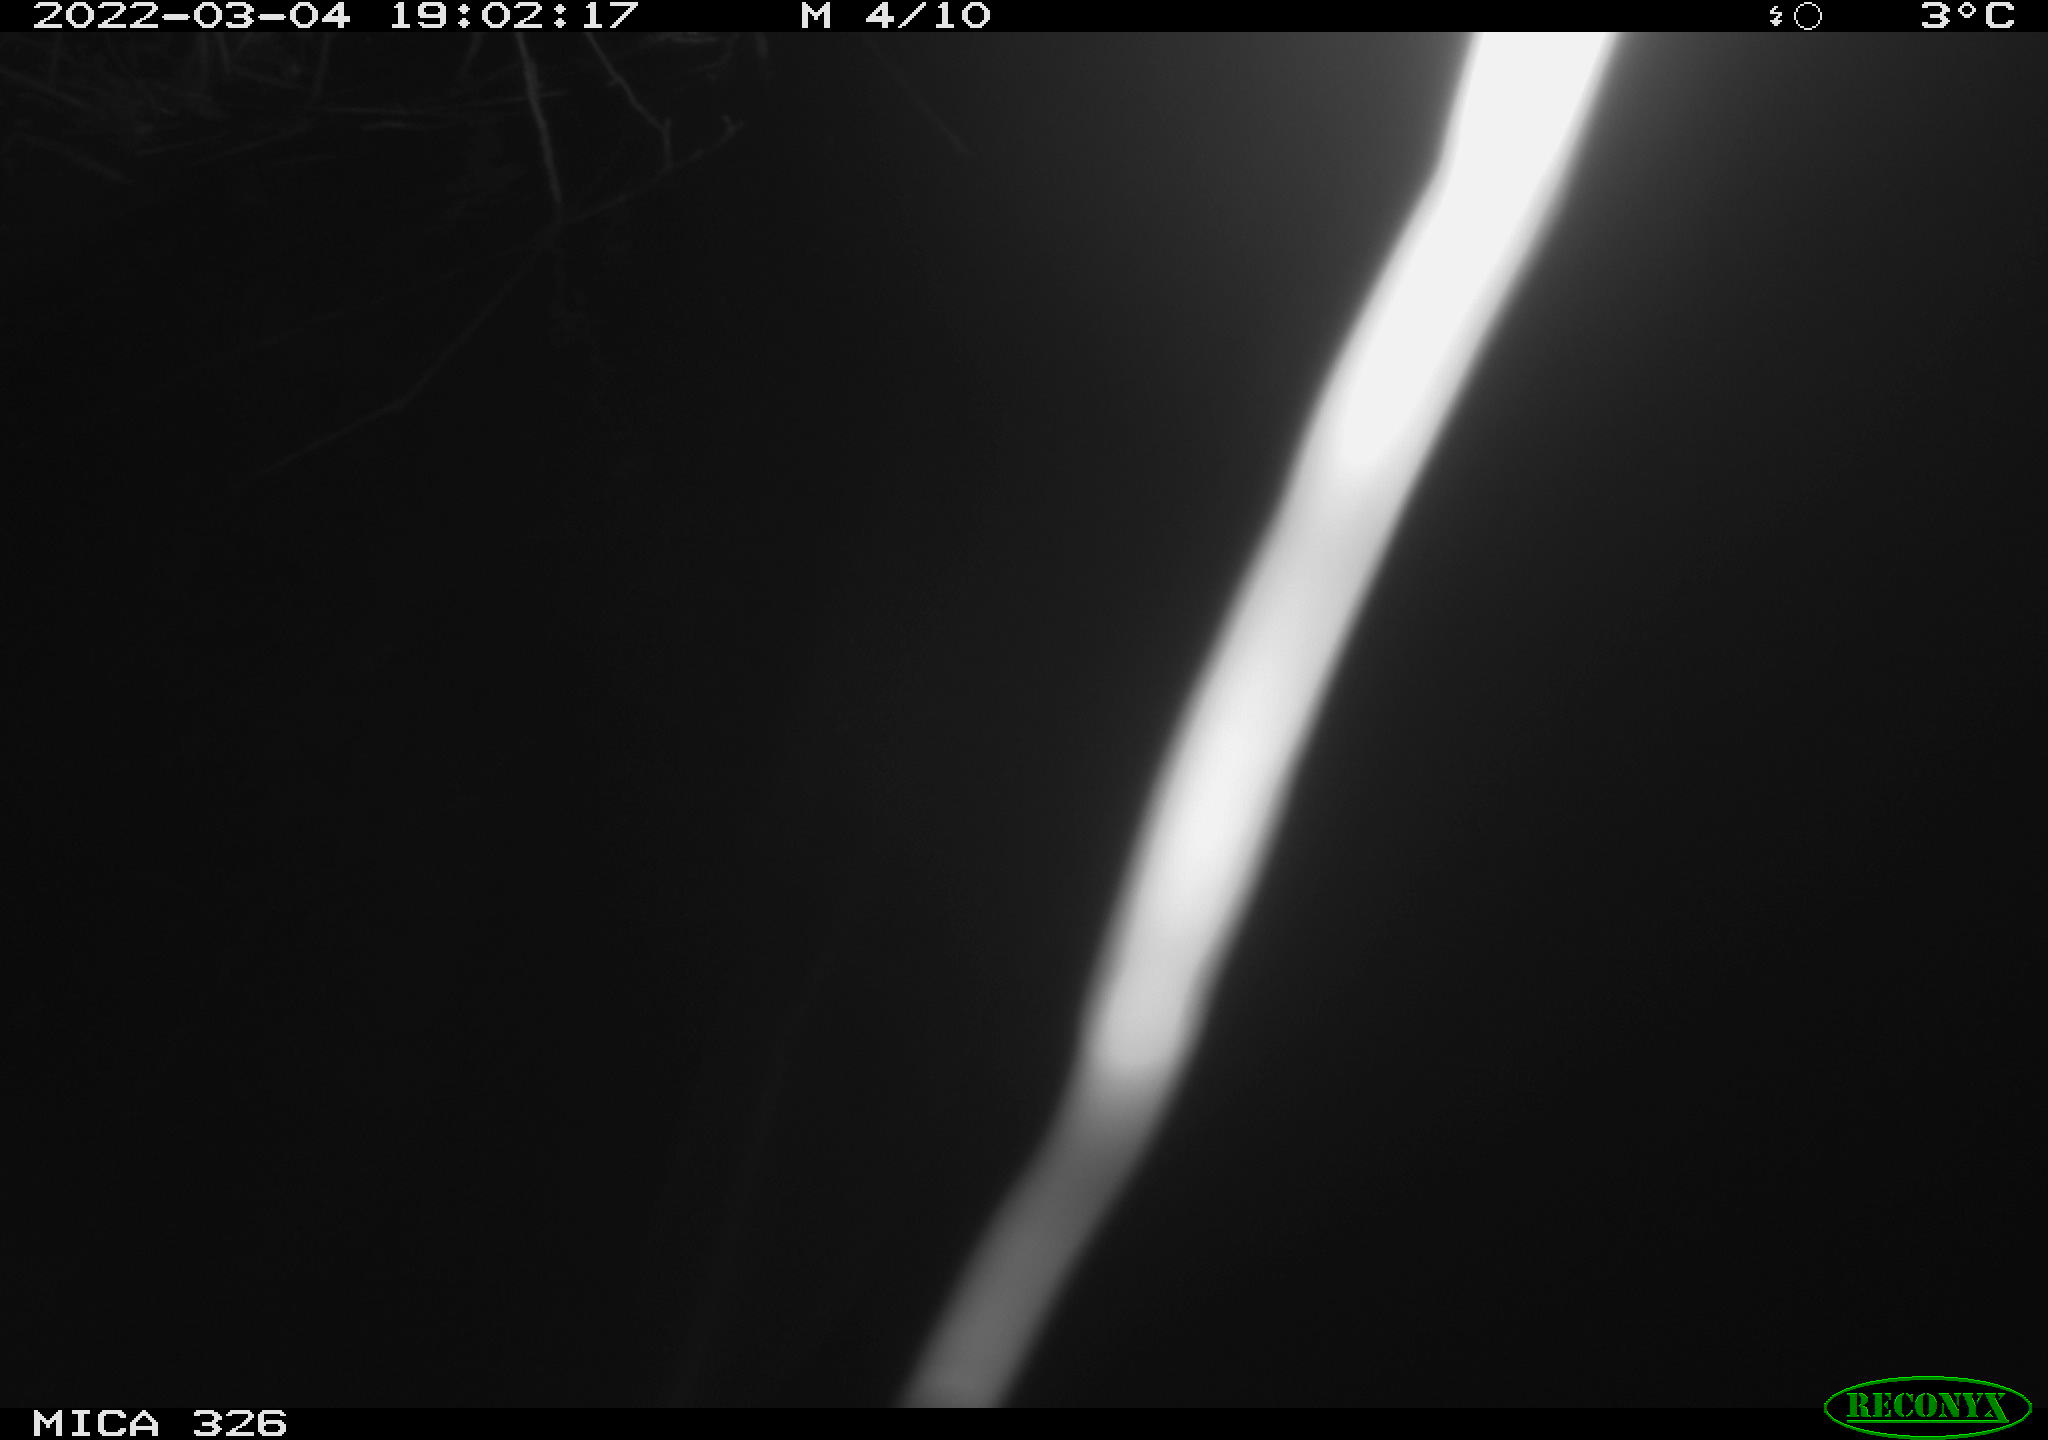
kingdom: Animalia
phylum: Chordata
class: Mammalia
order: Rodentia
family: Cricetidae
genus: Ondatra
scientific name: Ondatra zibethicus
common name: Muskrat
